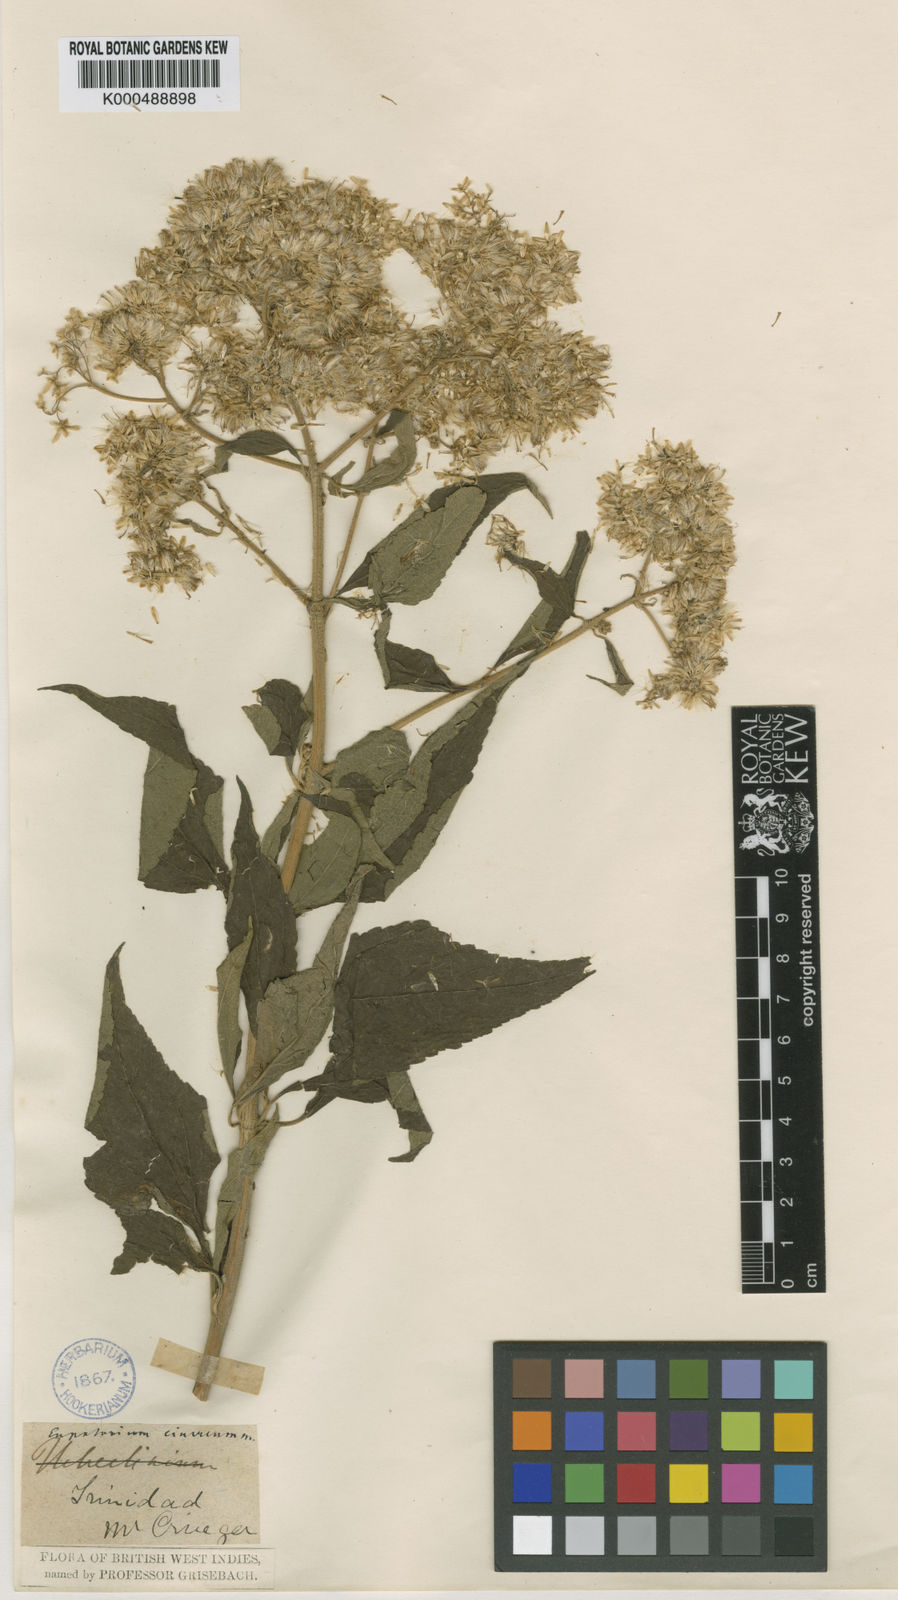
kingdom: Plantae
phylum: Tracheophyta
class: Magnoliopsida
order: Asterales
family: Asteraceae
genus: Austroeupatorium
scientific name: Austroeupatorium inulifolium
